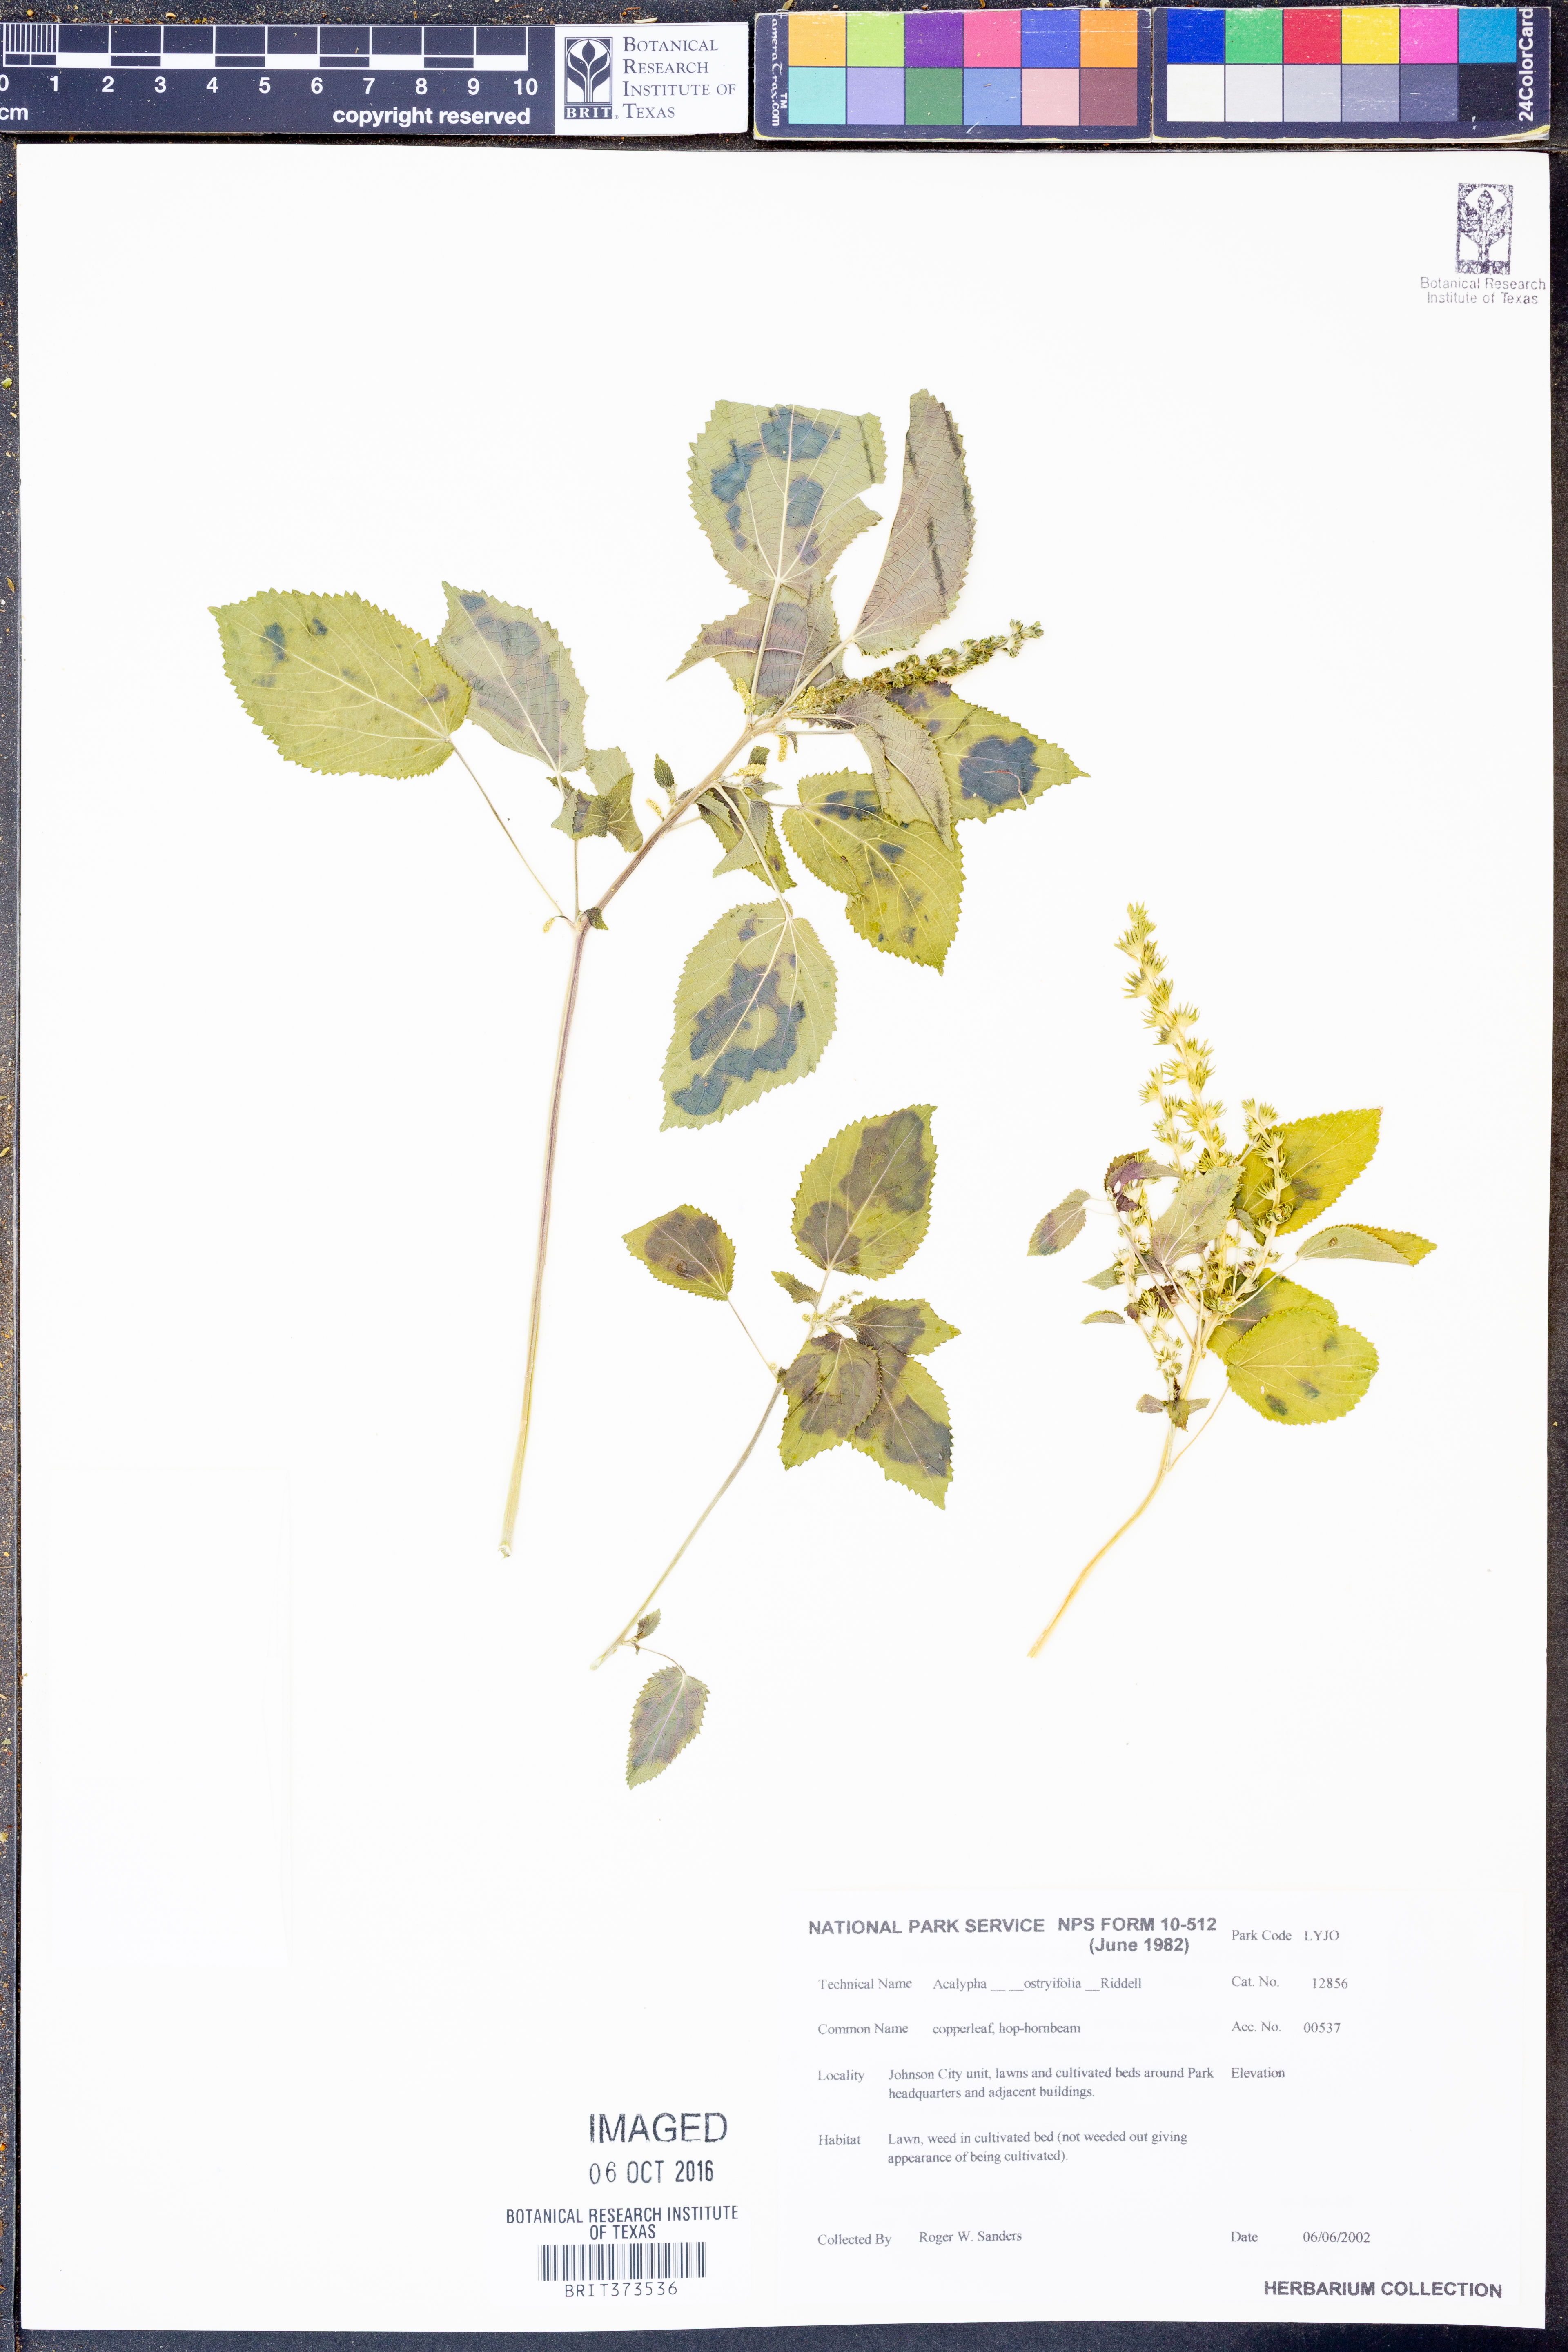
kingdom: Plantae
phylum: Tracheophyta
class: Magnoliopsida
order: Malpighiales
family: Euphorbiaceae
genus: Acalypha
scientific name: Acalypha persimilis
